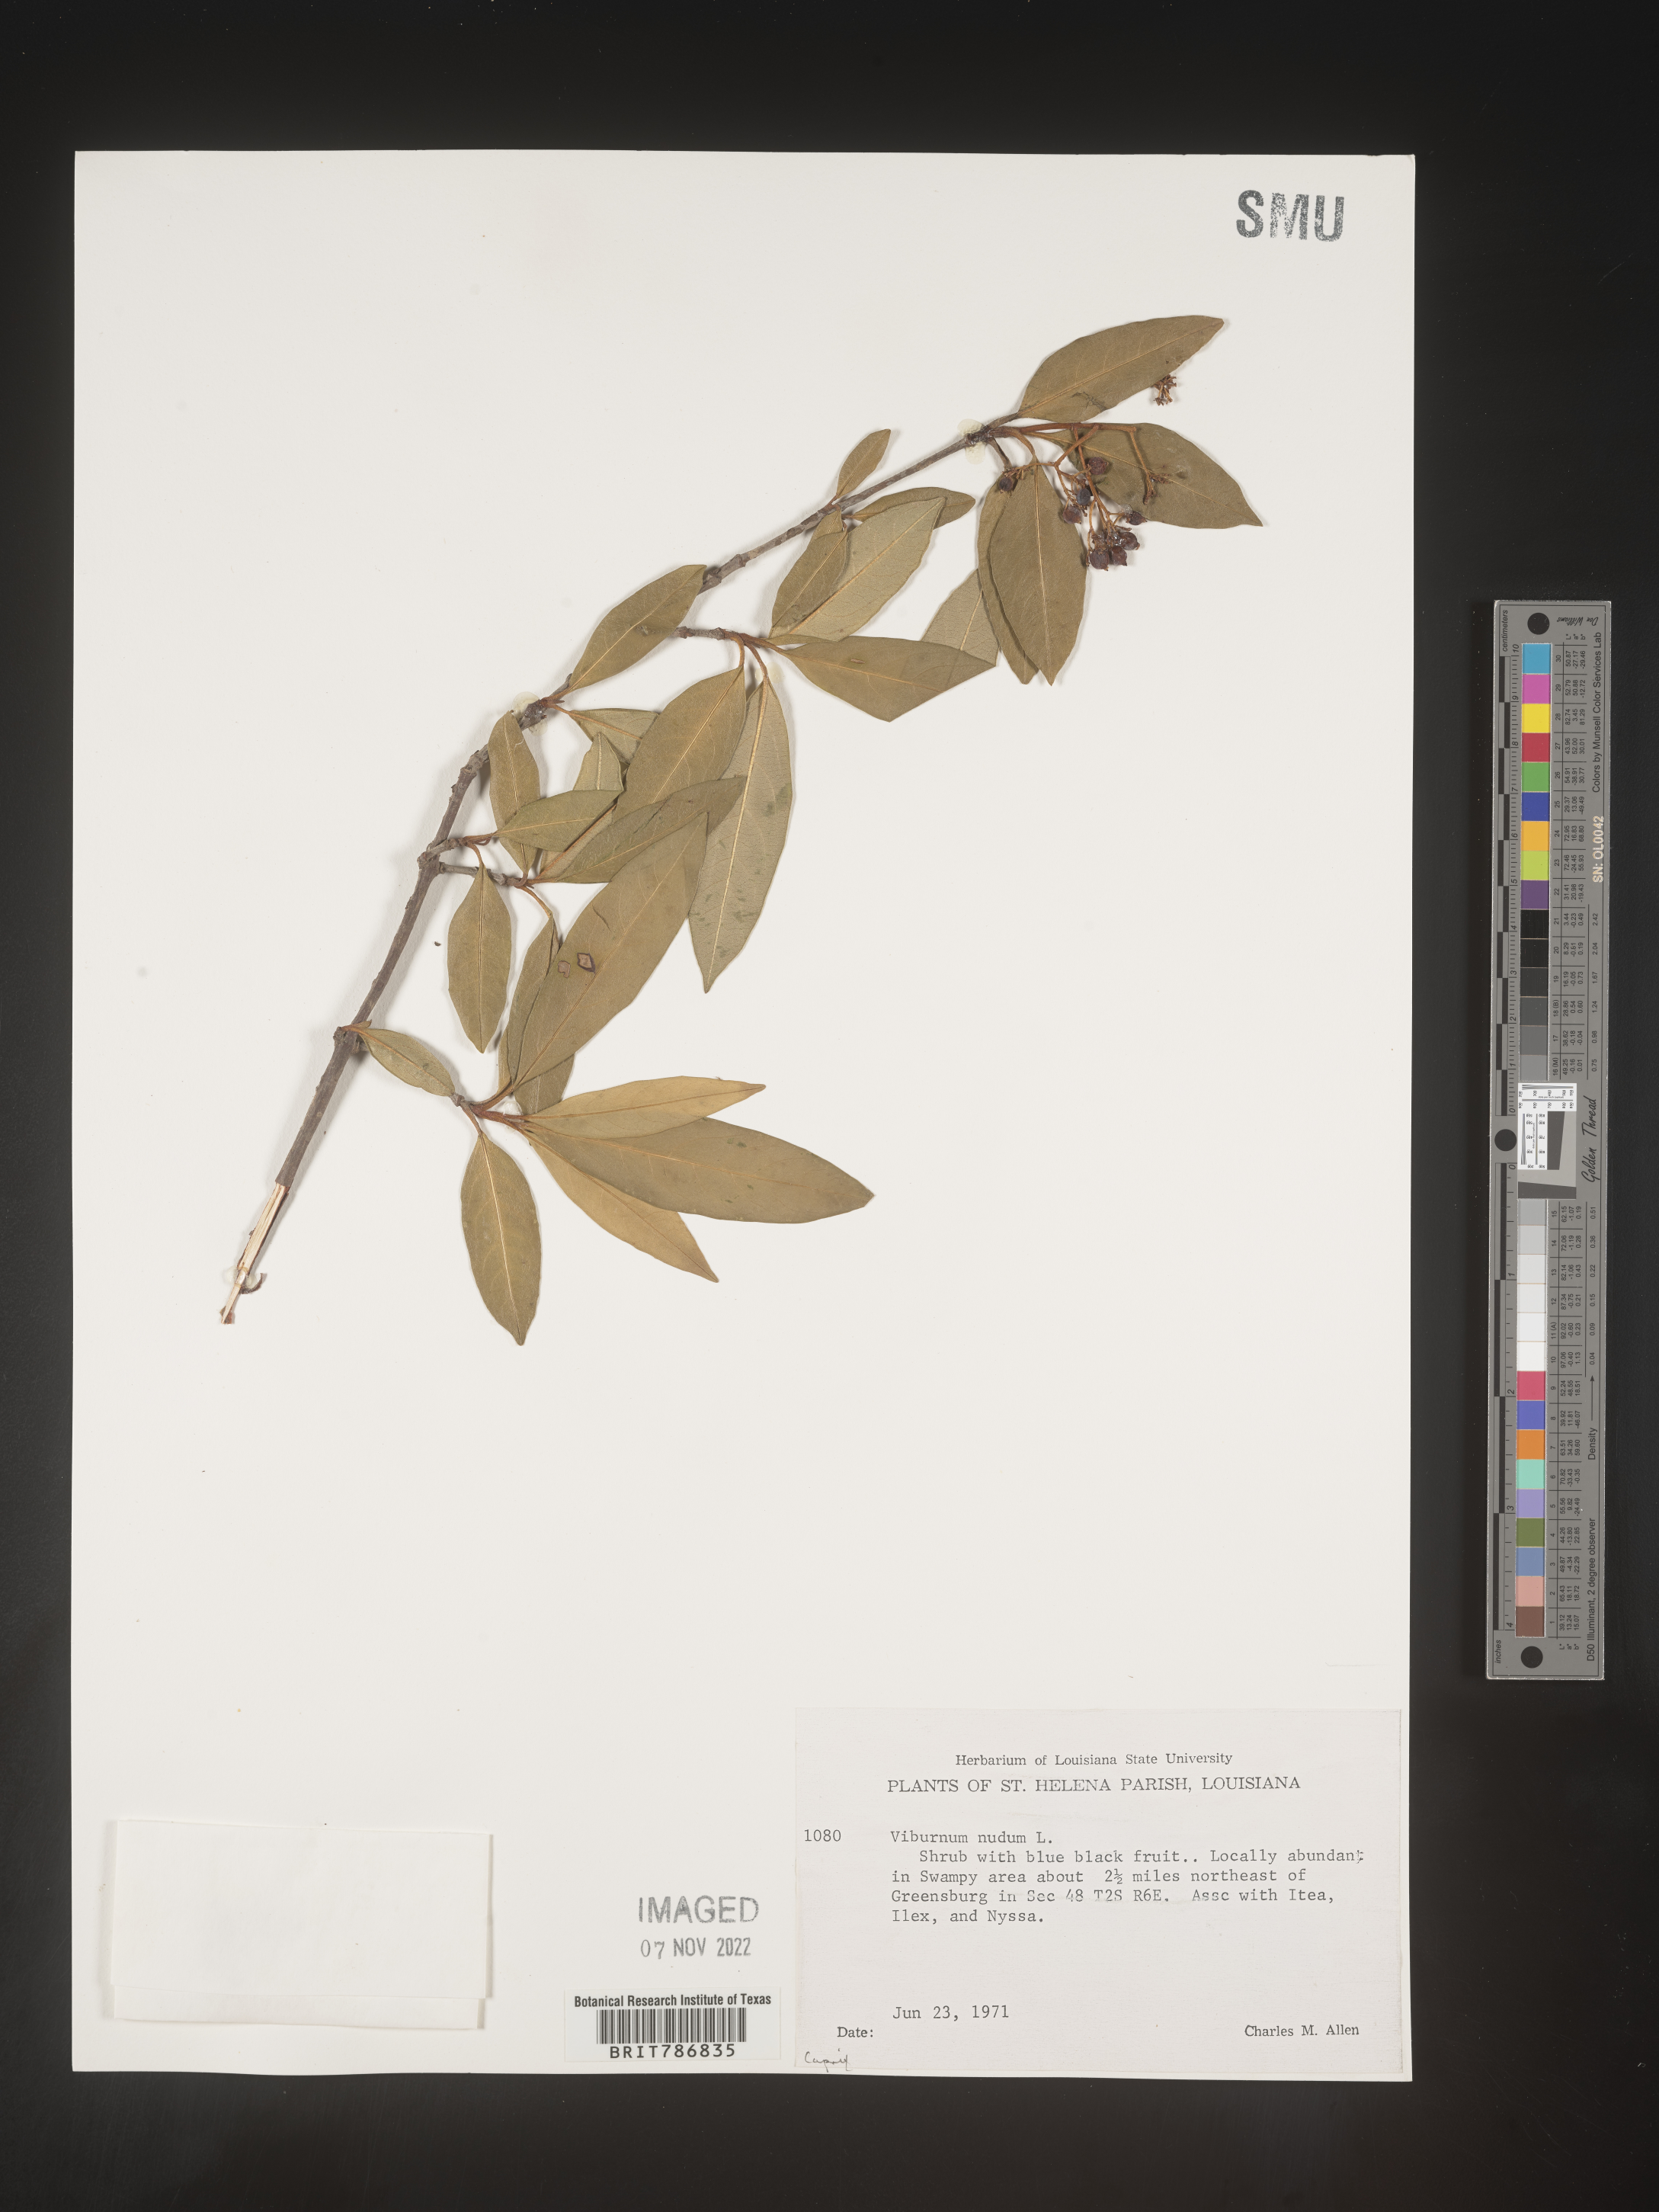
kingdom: Plantae
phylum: Tracheophyta
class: Magnoliopsida
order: Dipsacales
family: Viburnaceae
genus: Viburnum
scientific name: Viburnum nudum
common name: Possum haw
